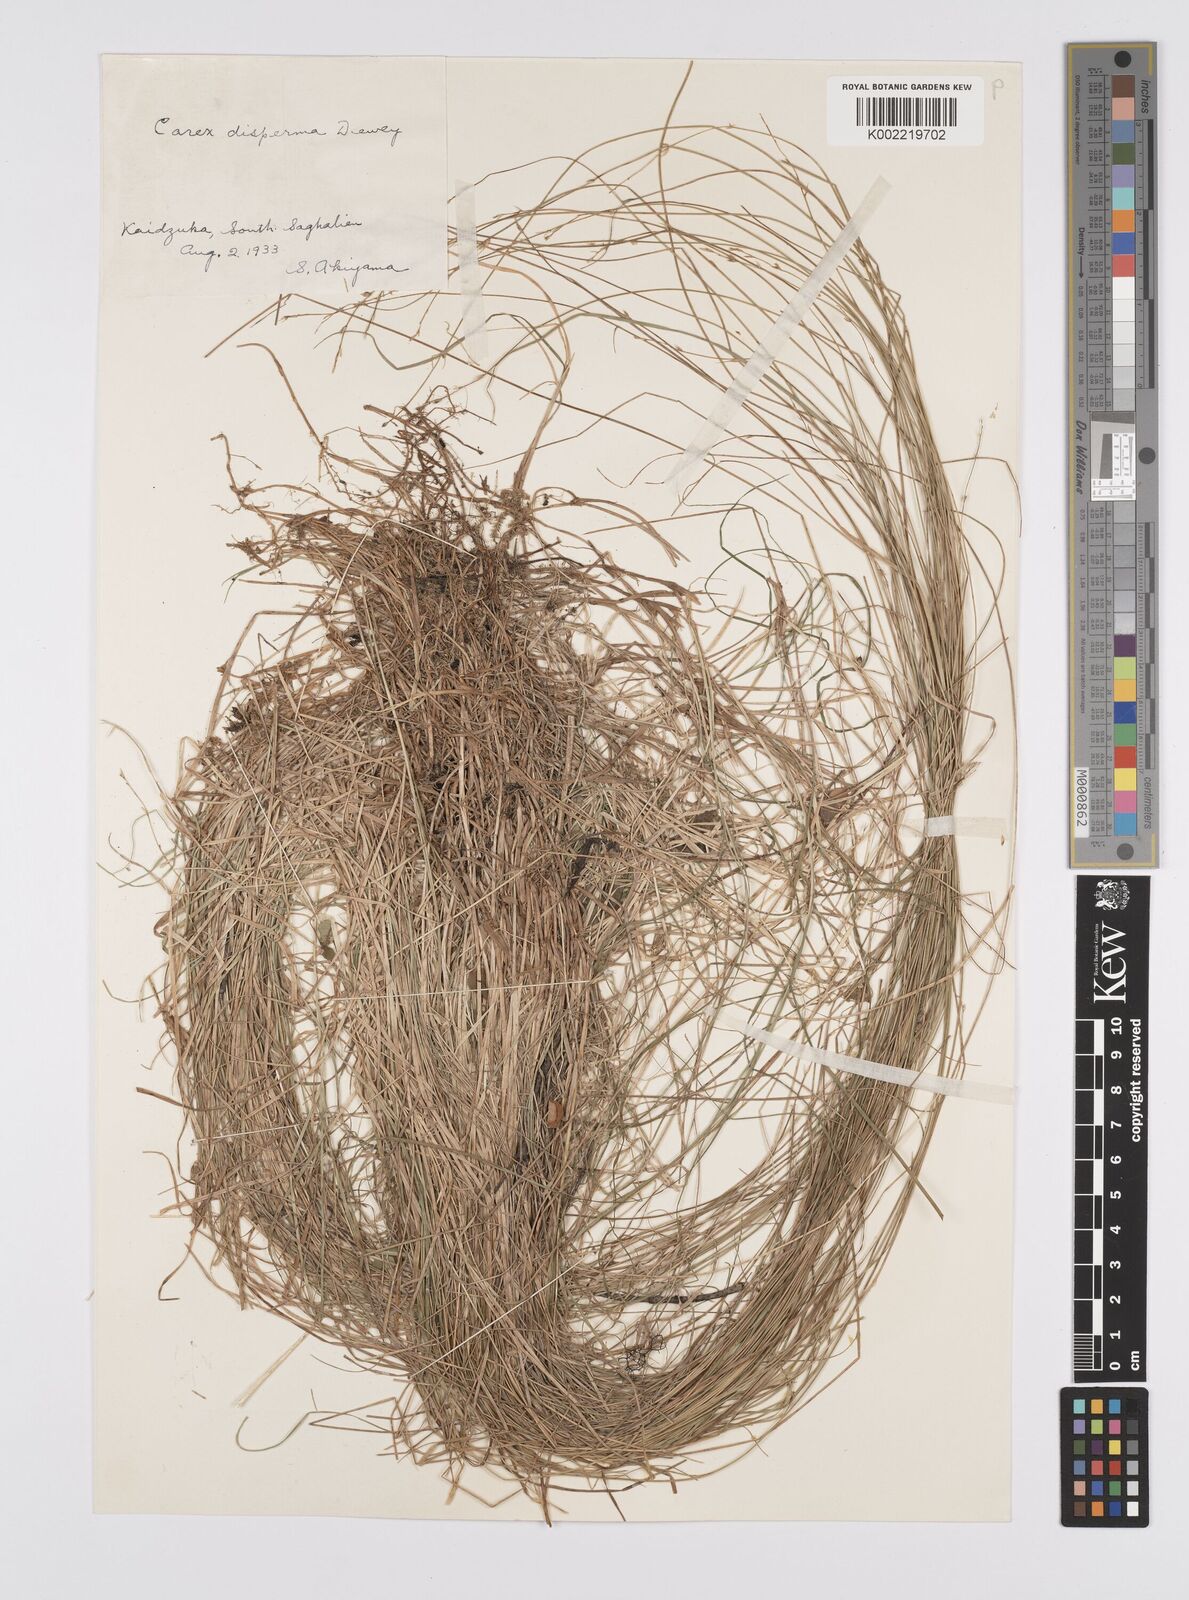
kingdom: Plantae
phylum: Tracheophyta
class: Liliopsida
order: Poales
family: Cyperaceae
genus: Carex
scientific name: Carex disperma
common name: Short-leaved sedge
